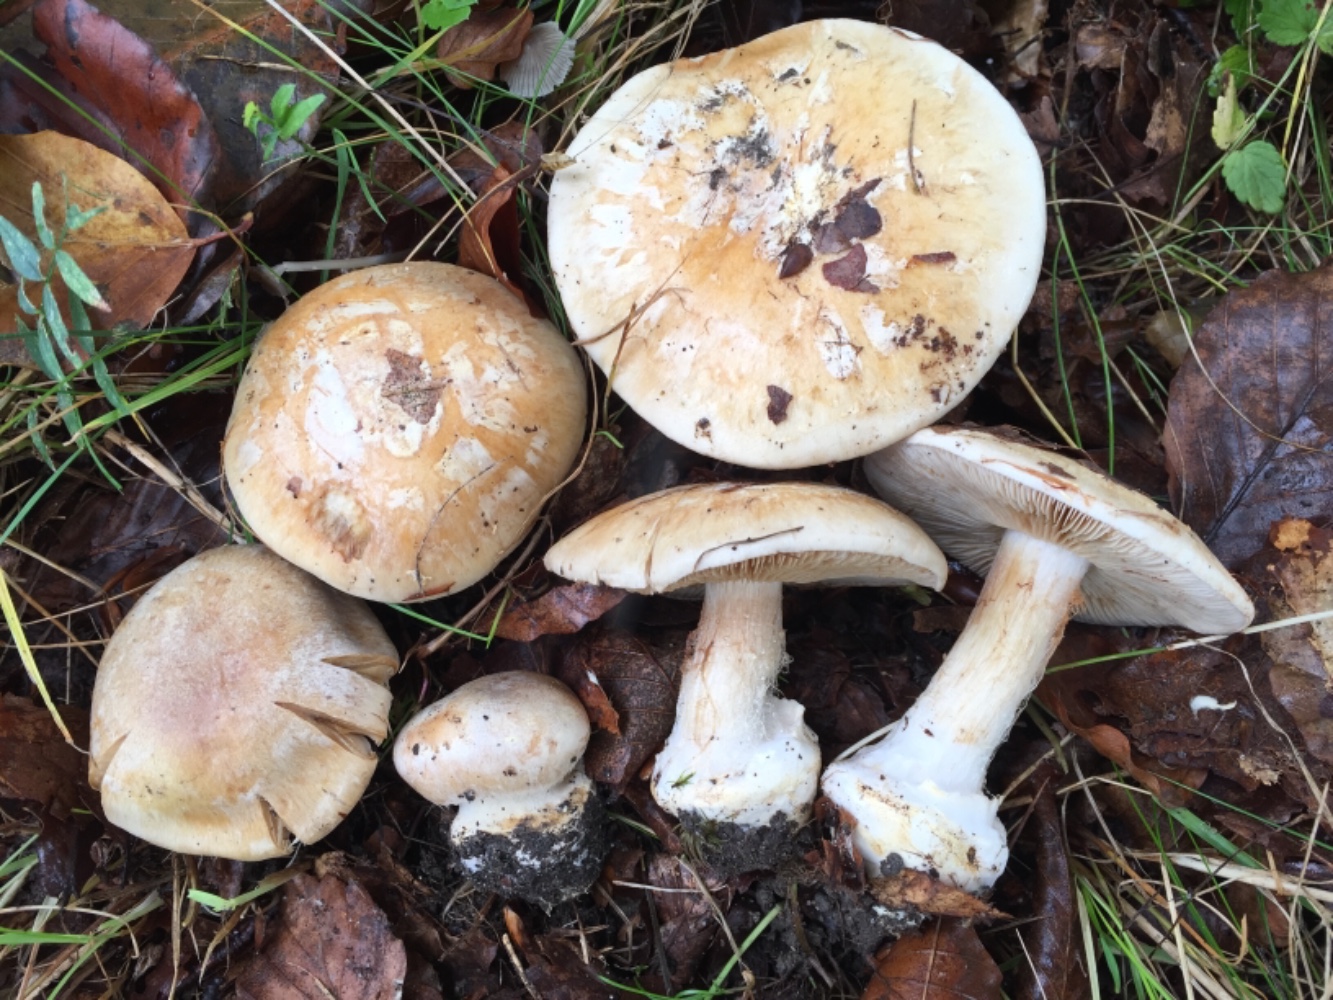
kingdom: Fungi
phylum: Basidiomycota
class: Agaricomycetes
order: Agaricales
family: Cortinariaceae
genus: Cortinarius
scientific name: Cortinarius foetens
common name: stribet slørhat
